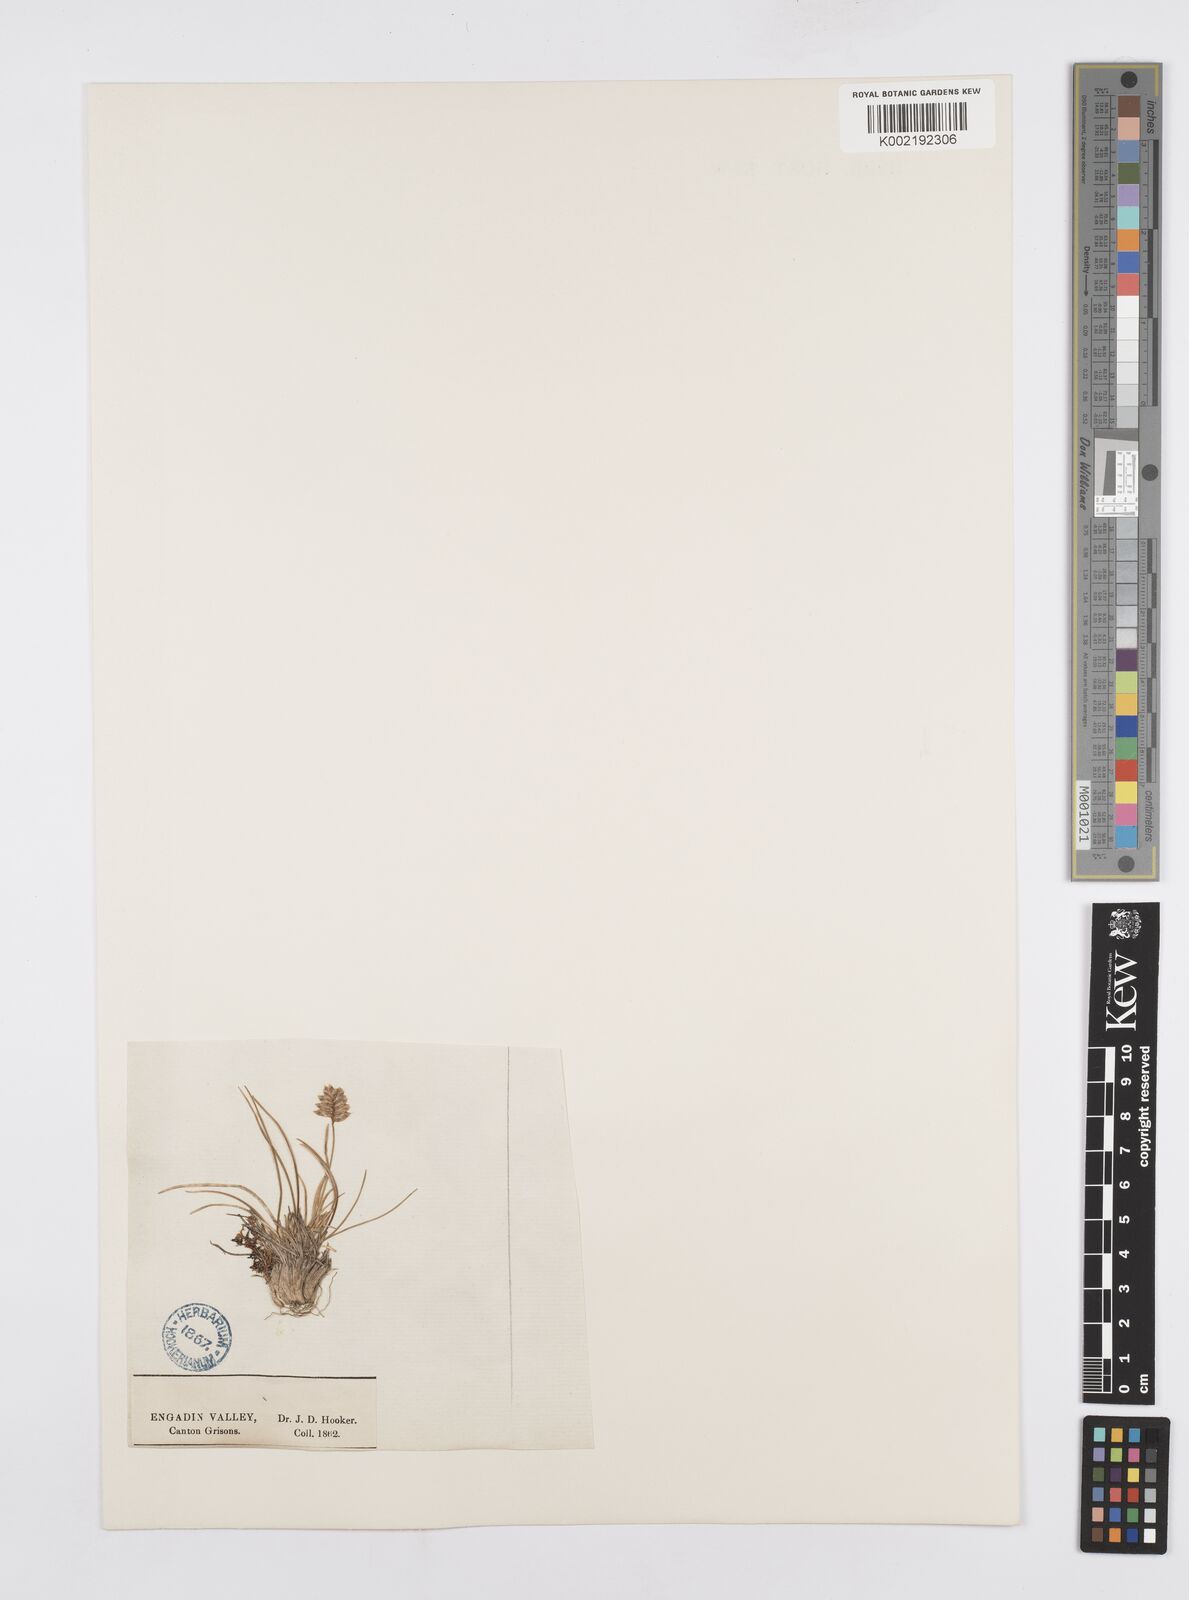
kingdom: Plantae
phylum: Tracheophyta
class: Liliopsida
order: Poales
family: Poaceae
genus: Oreochloa
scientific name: Oreochloa disticha
